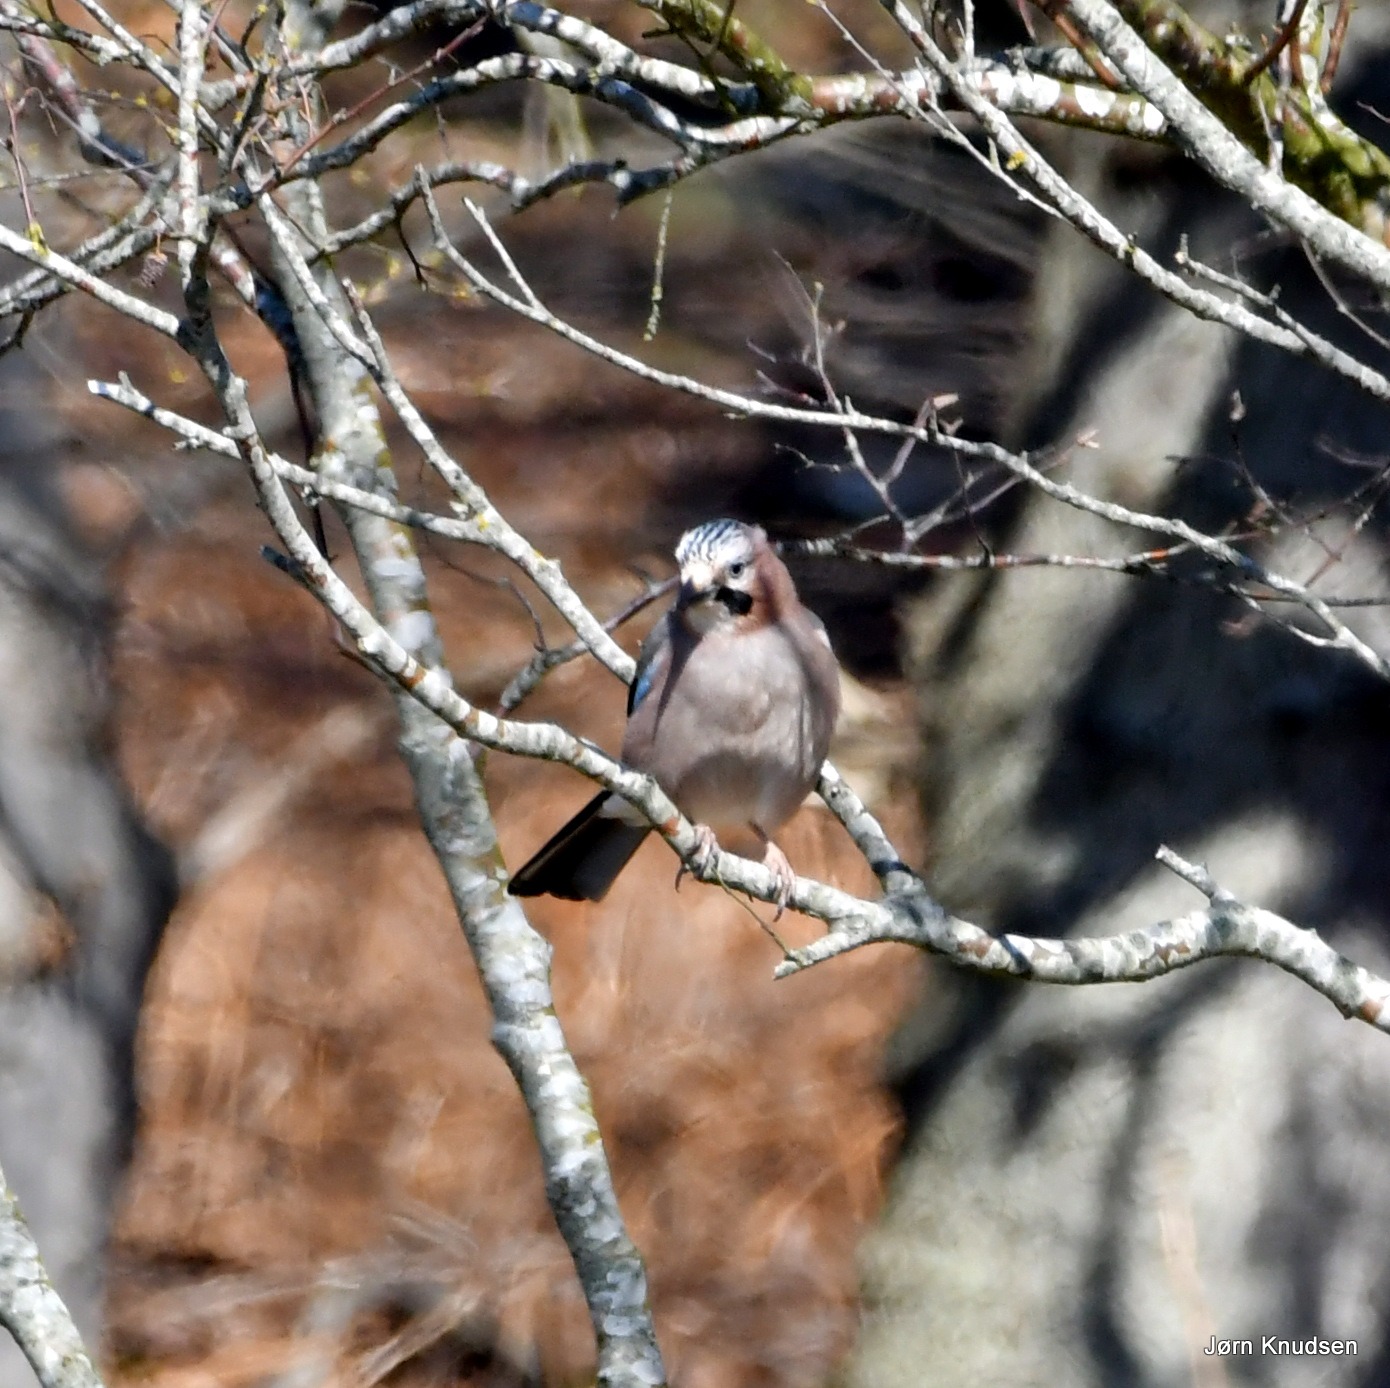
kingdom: Animalia
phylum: Chordata
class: Aves
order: Passeriformes
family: Corvidae
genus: Garrulus
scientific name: Garrulus glandarius
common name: Skovskade
